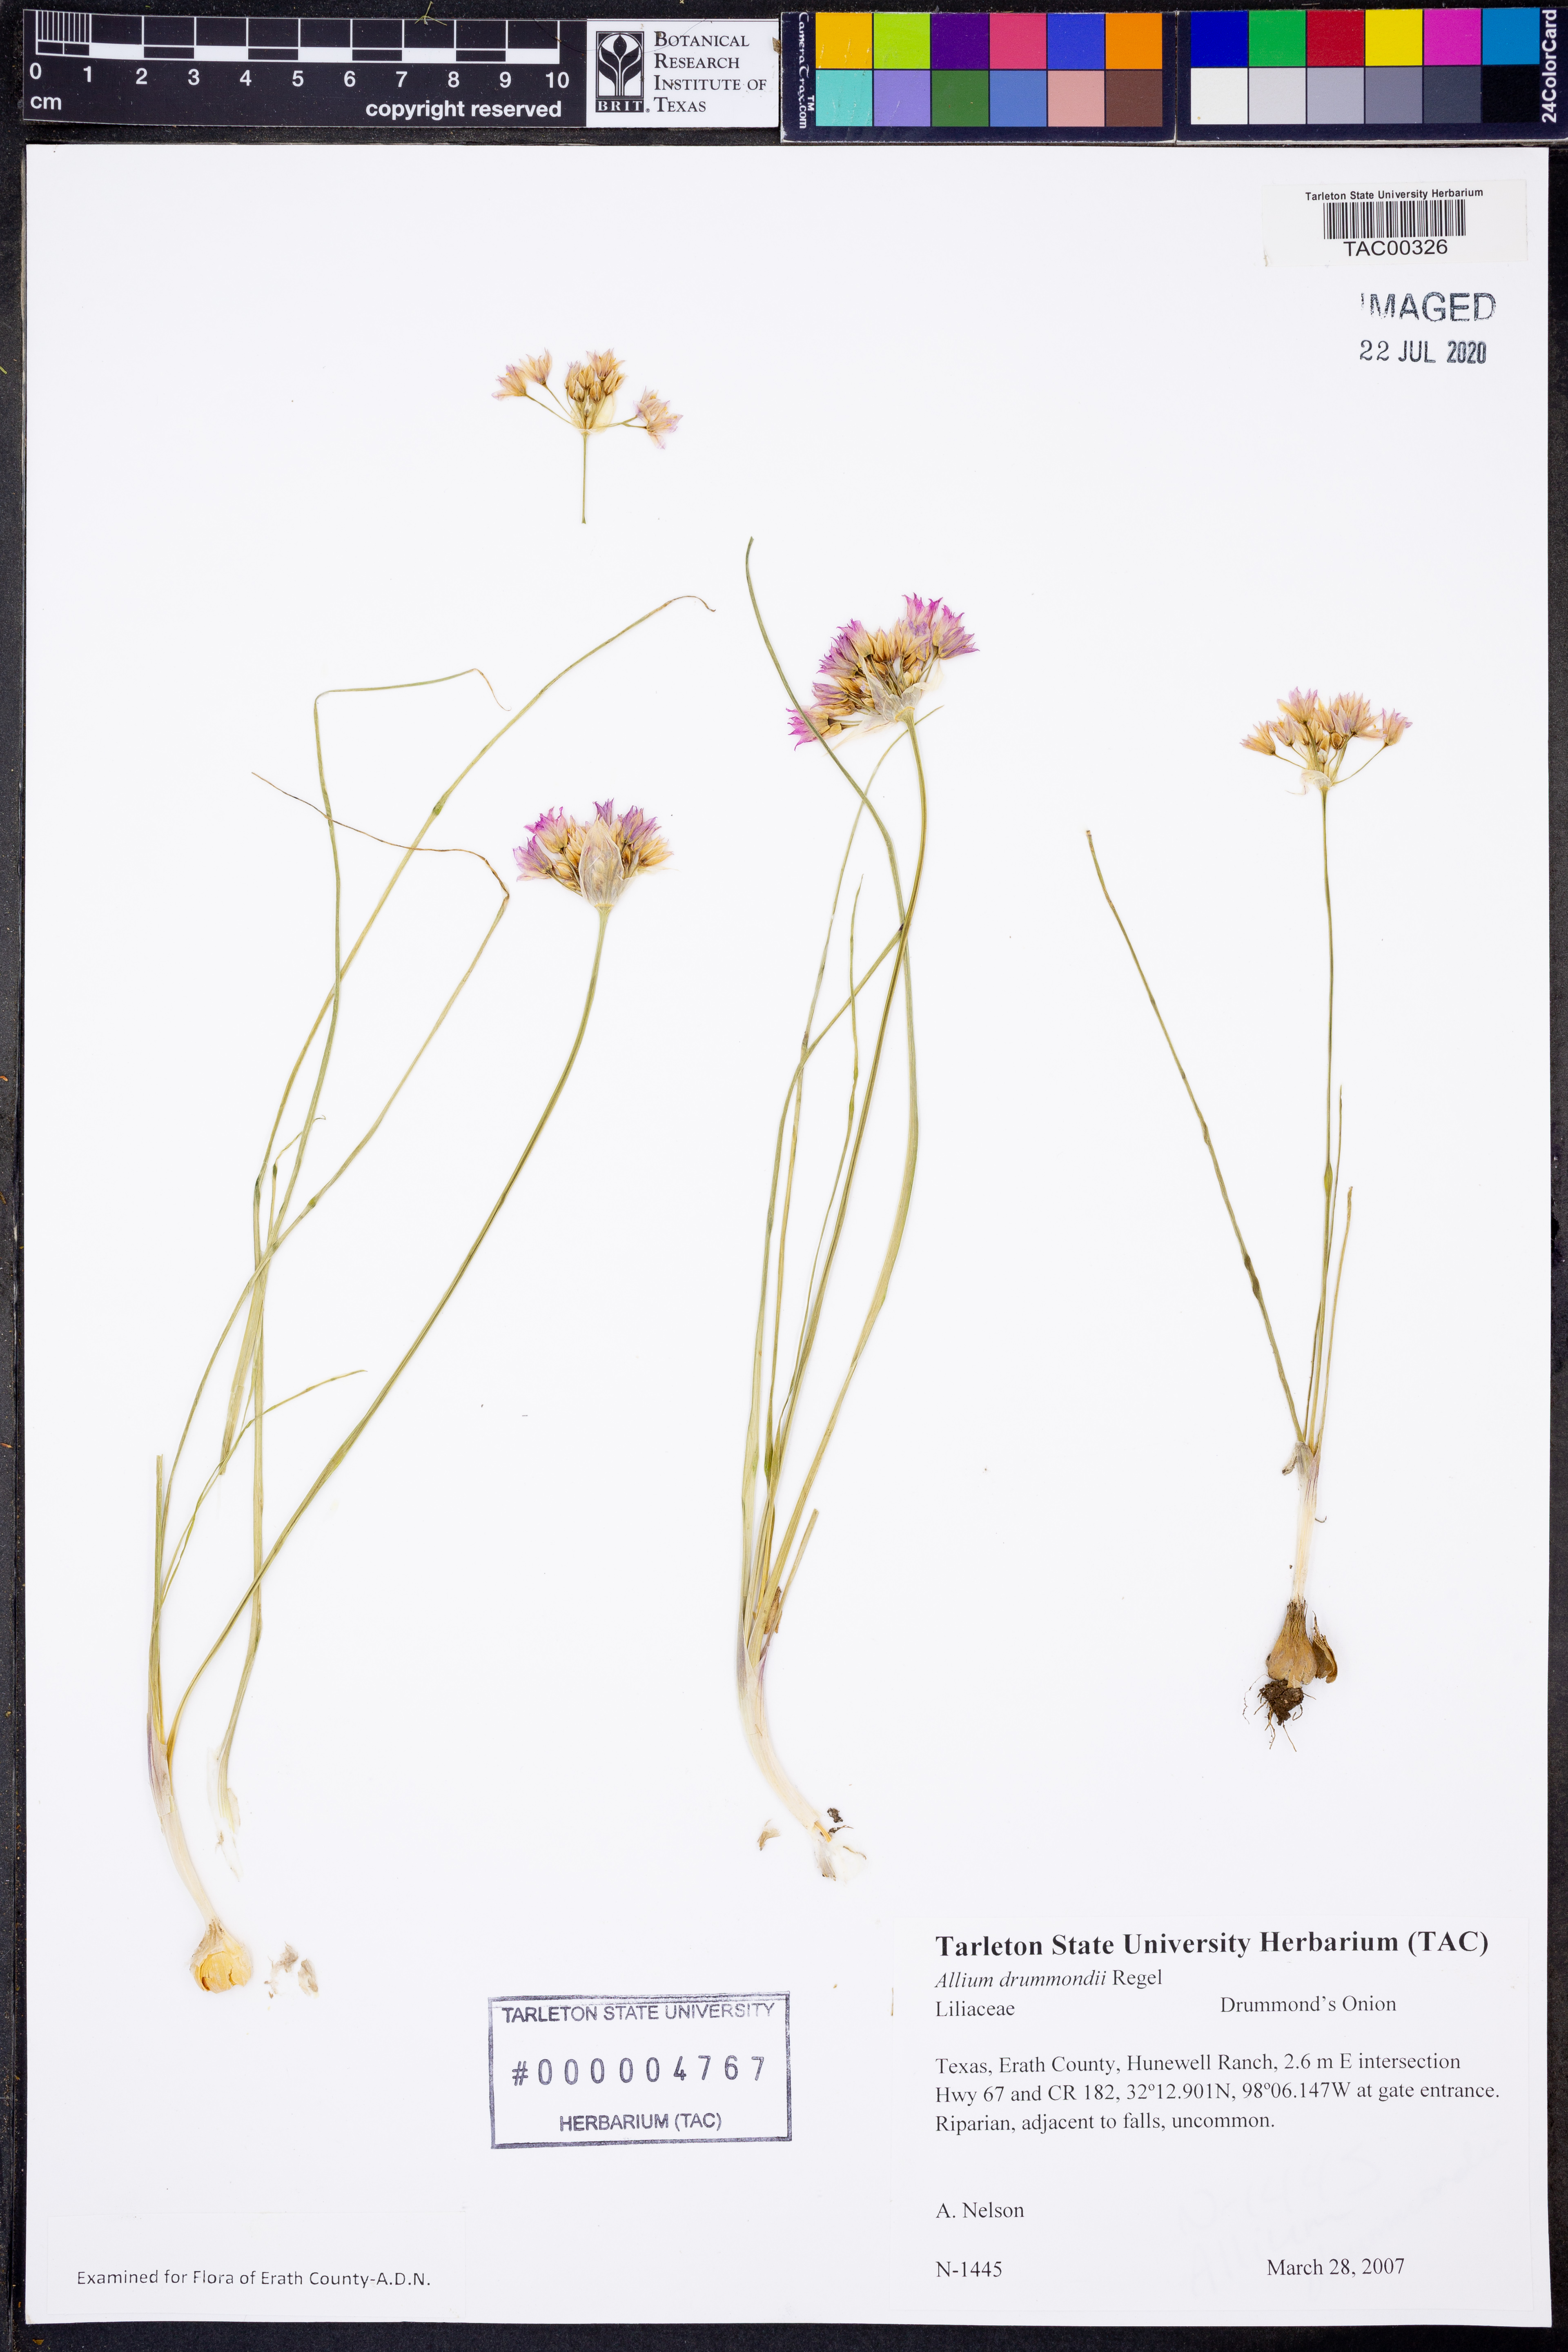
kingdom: Plantae
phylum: Tracheophyta
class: Liliopsida
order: Asparagales
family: Amaryllidaceae
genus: Allium
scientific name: Allium drummondii
